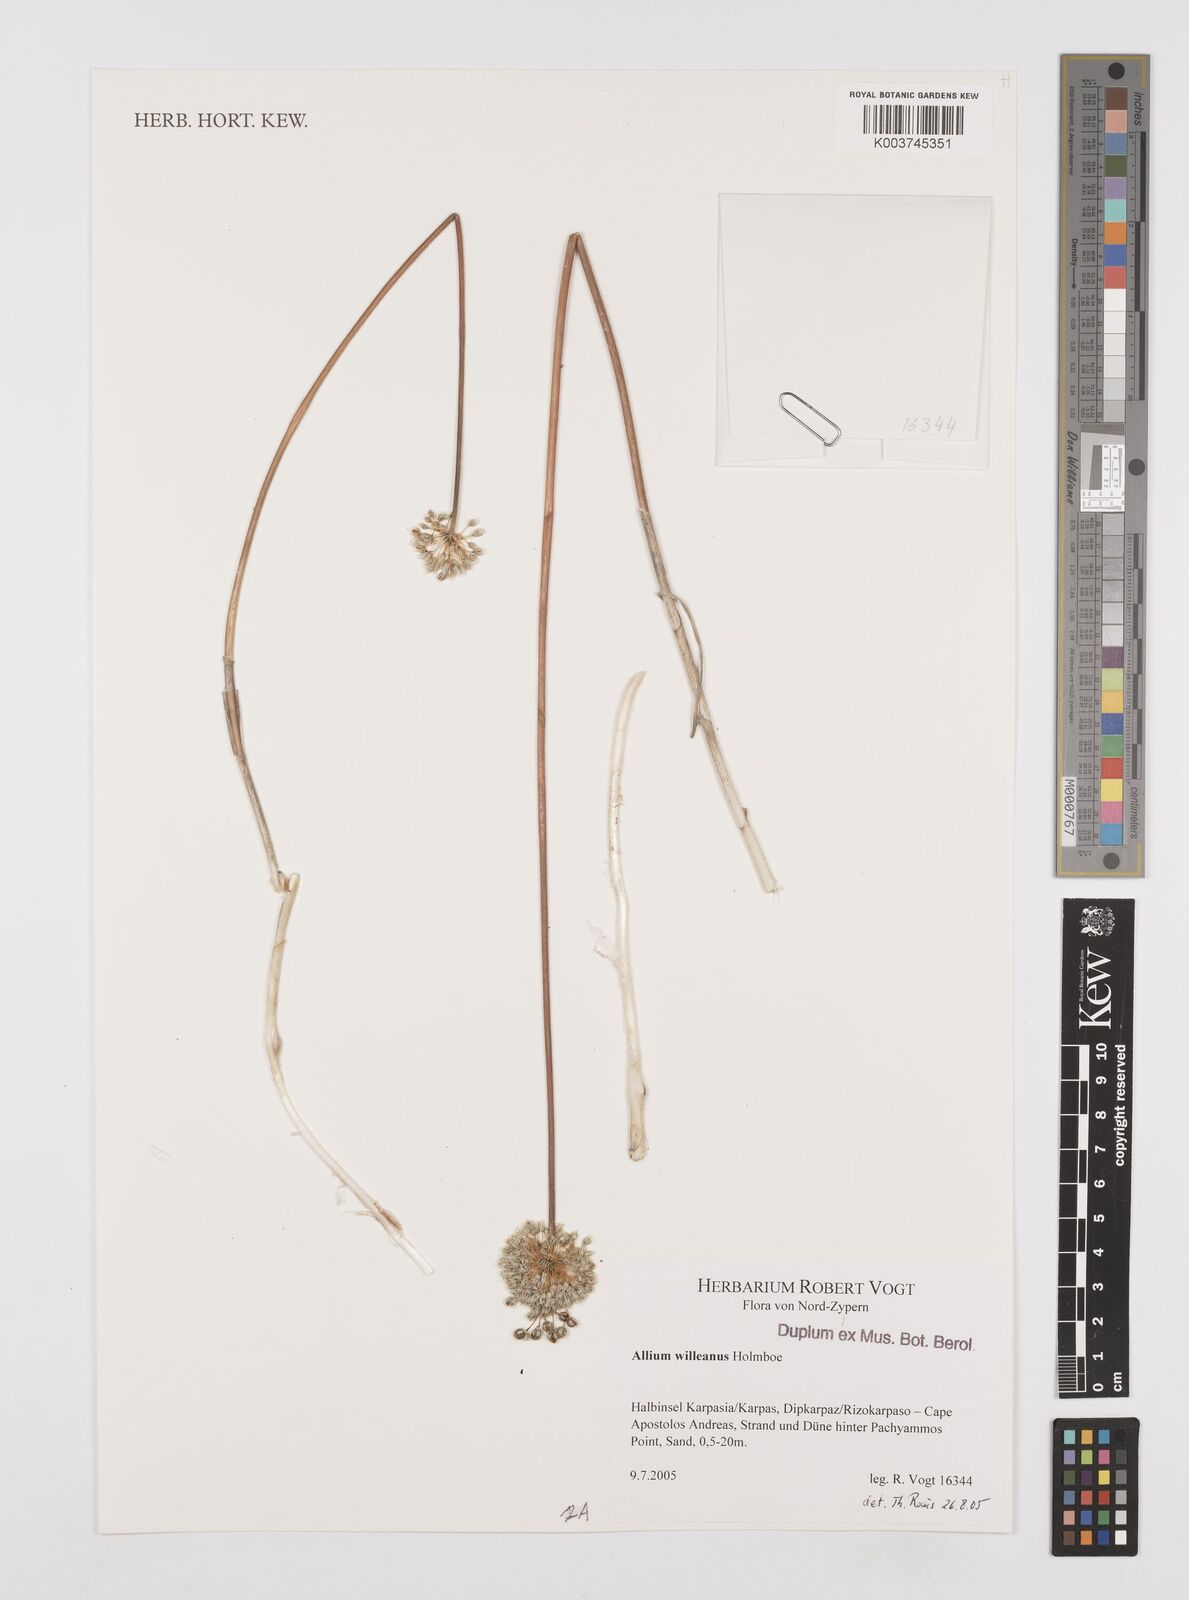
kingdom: Plantae
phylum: Tracheophyta
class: Liliopsida
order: Asparagales
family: Amaryllidaceae
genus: Allium
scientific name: Allium willeanum
